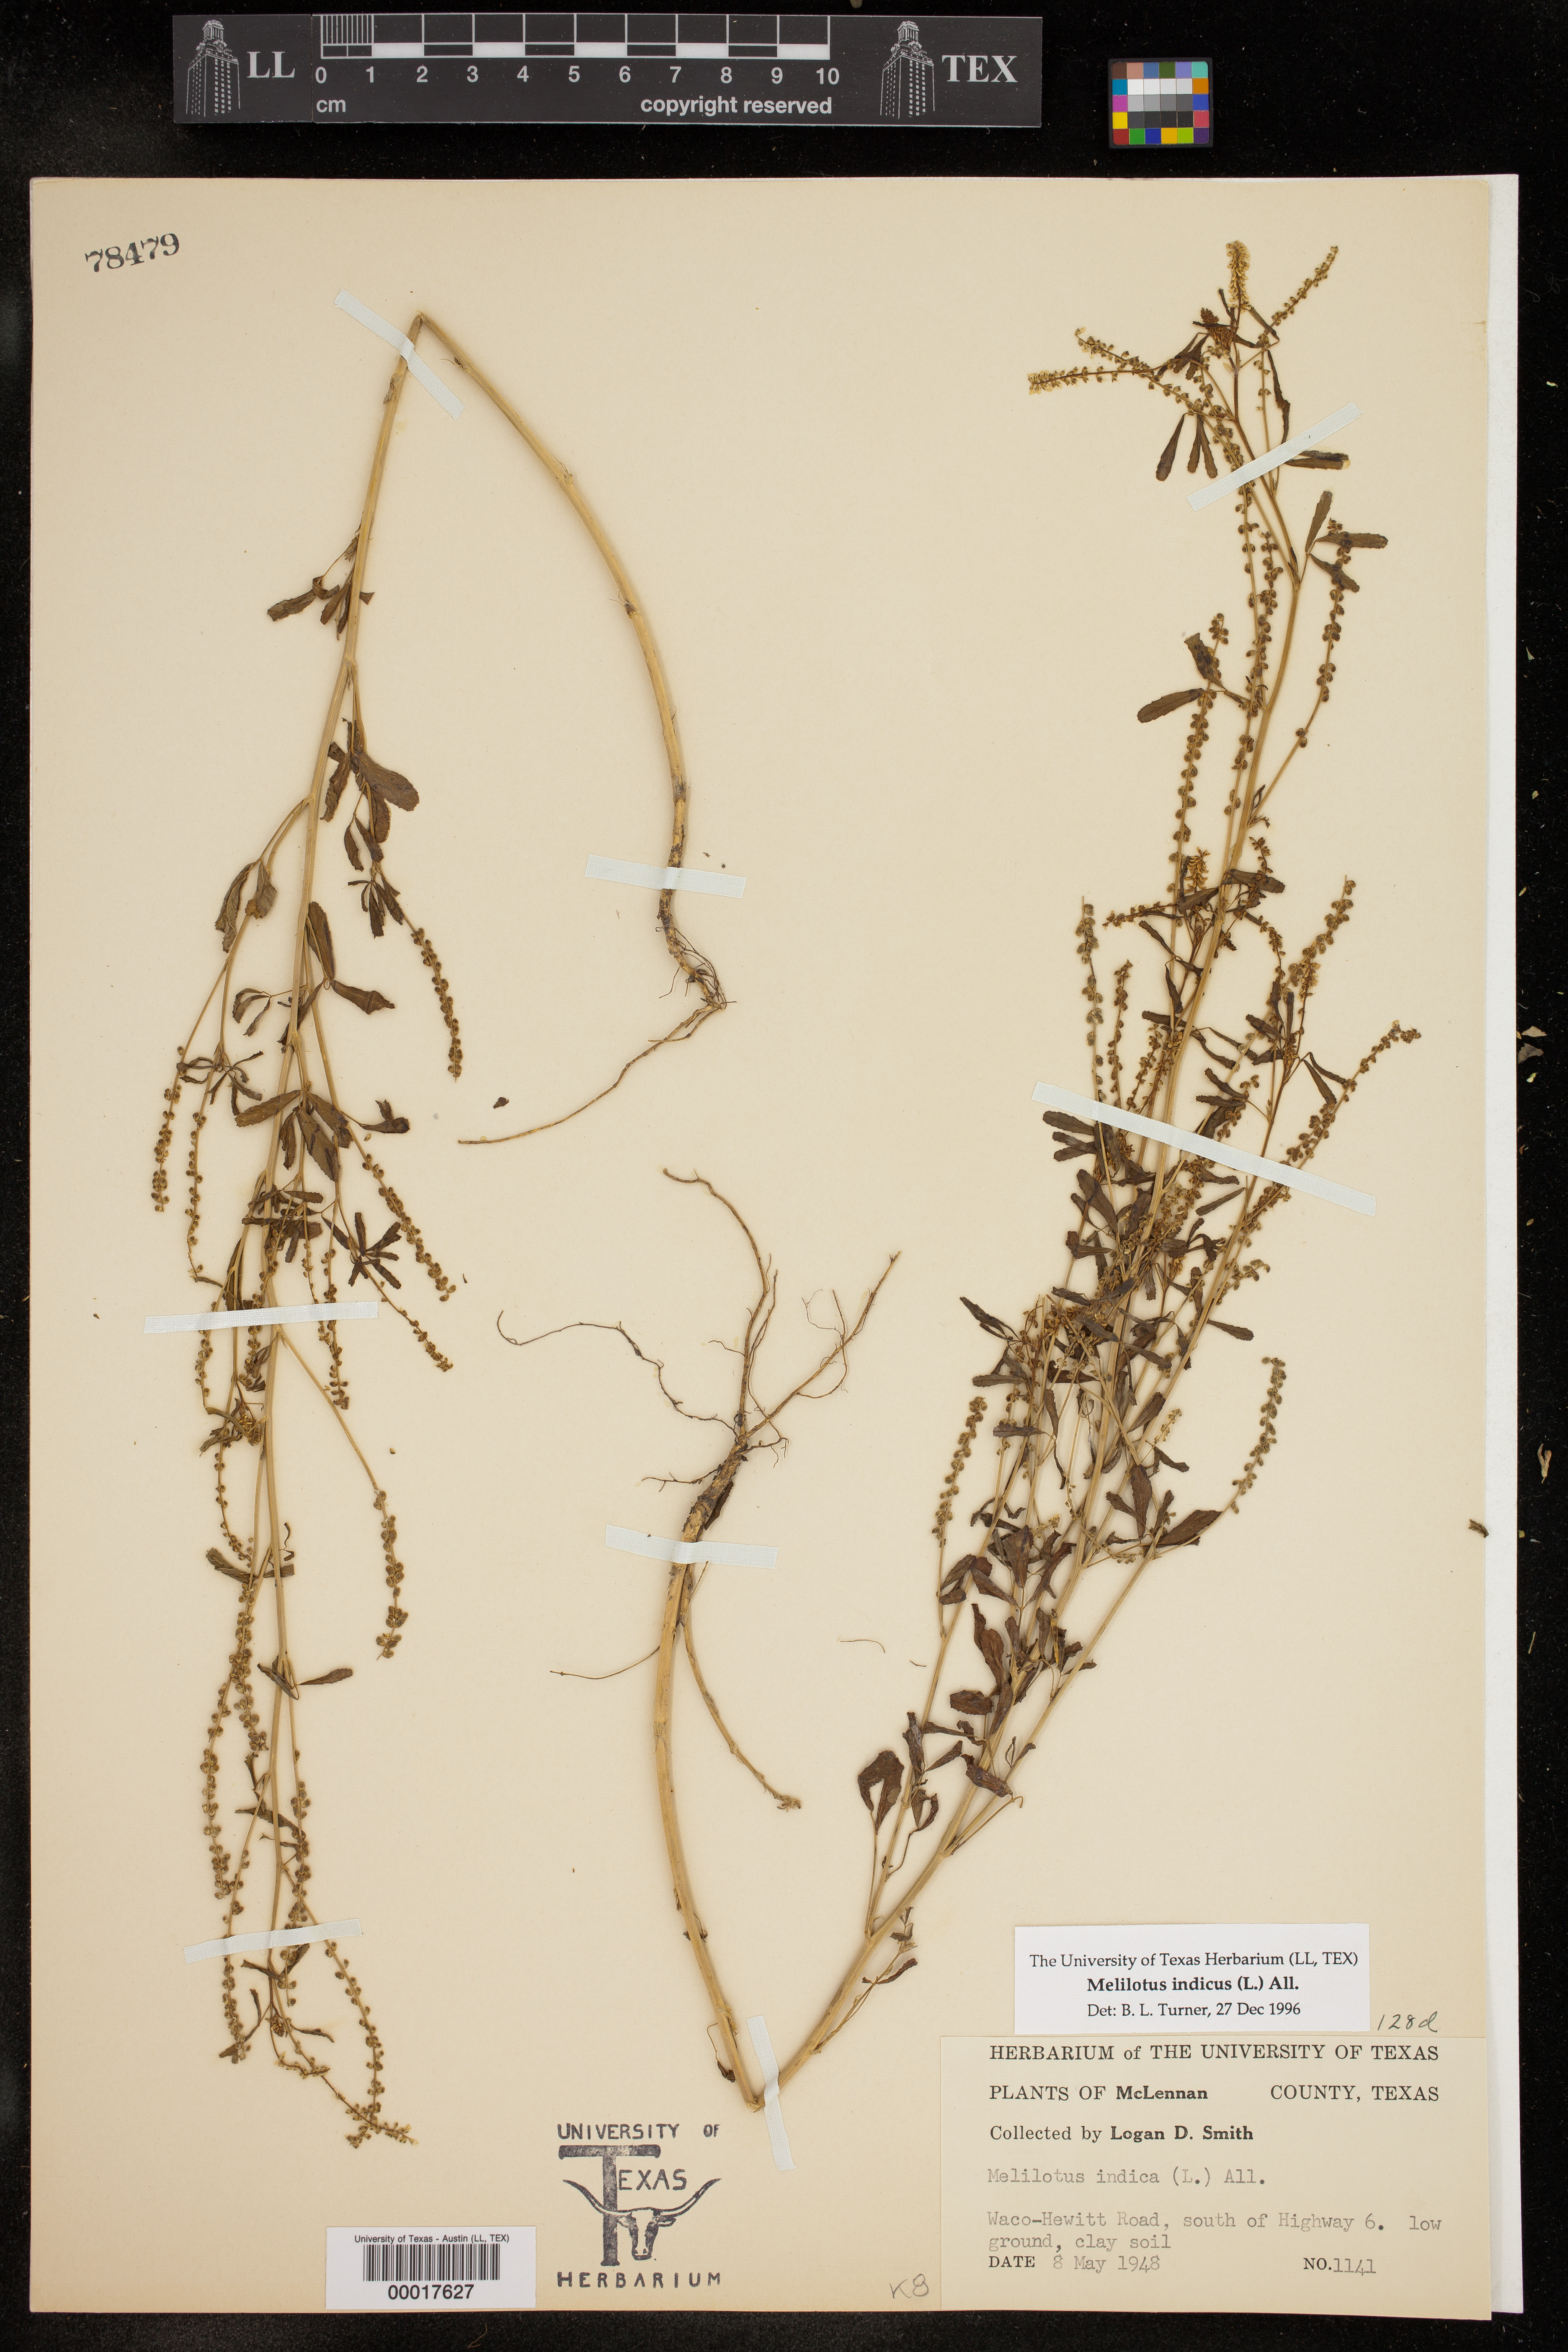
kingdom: Plantae
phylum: Tracheophyta
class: Magnoliopsida
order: Fabales
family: Fabaceae
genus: Melilotus
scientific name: Melilotus indicus
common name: Small melilot
